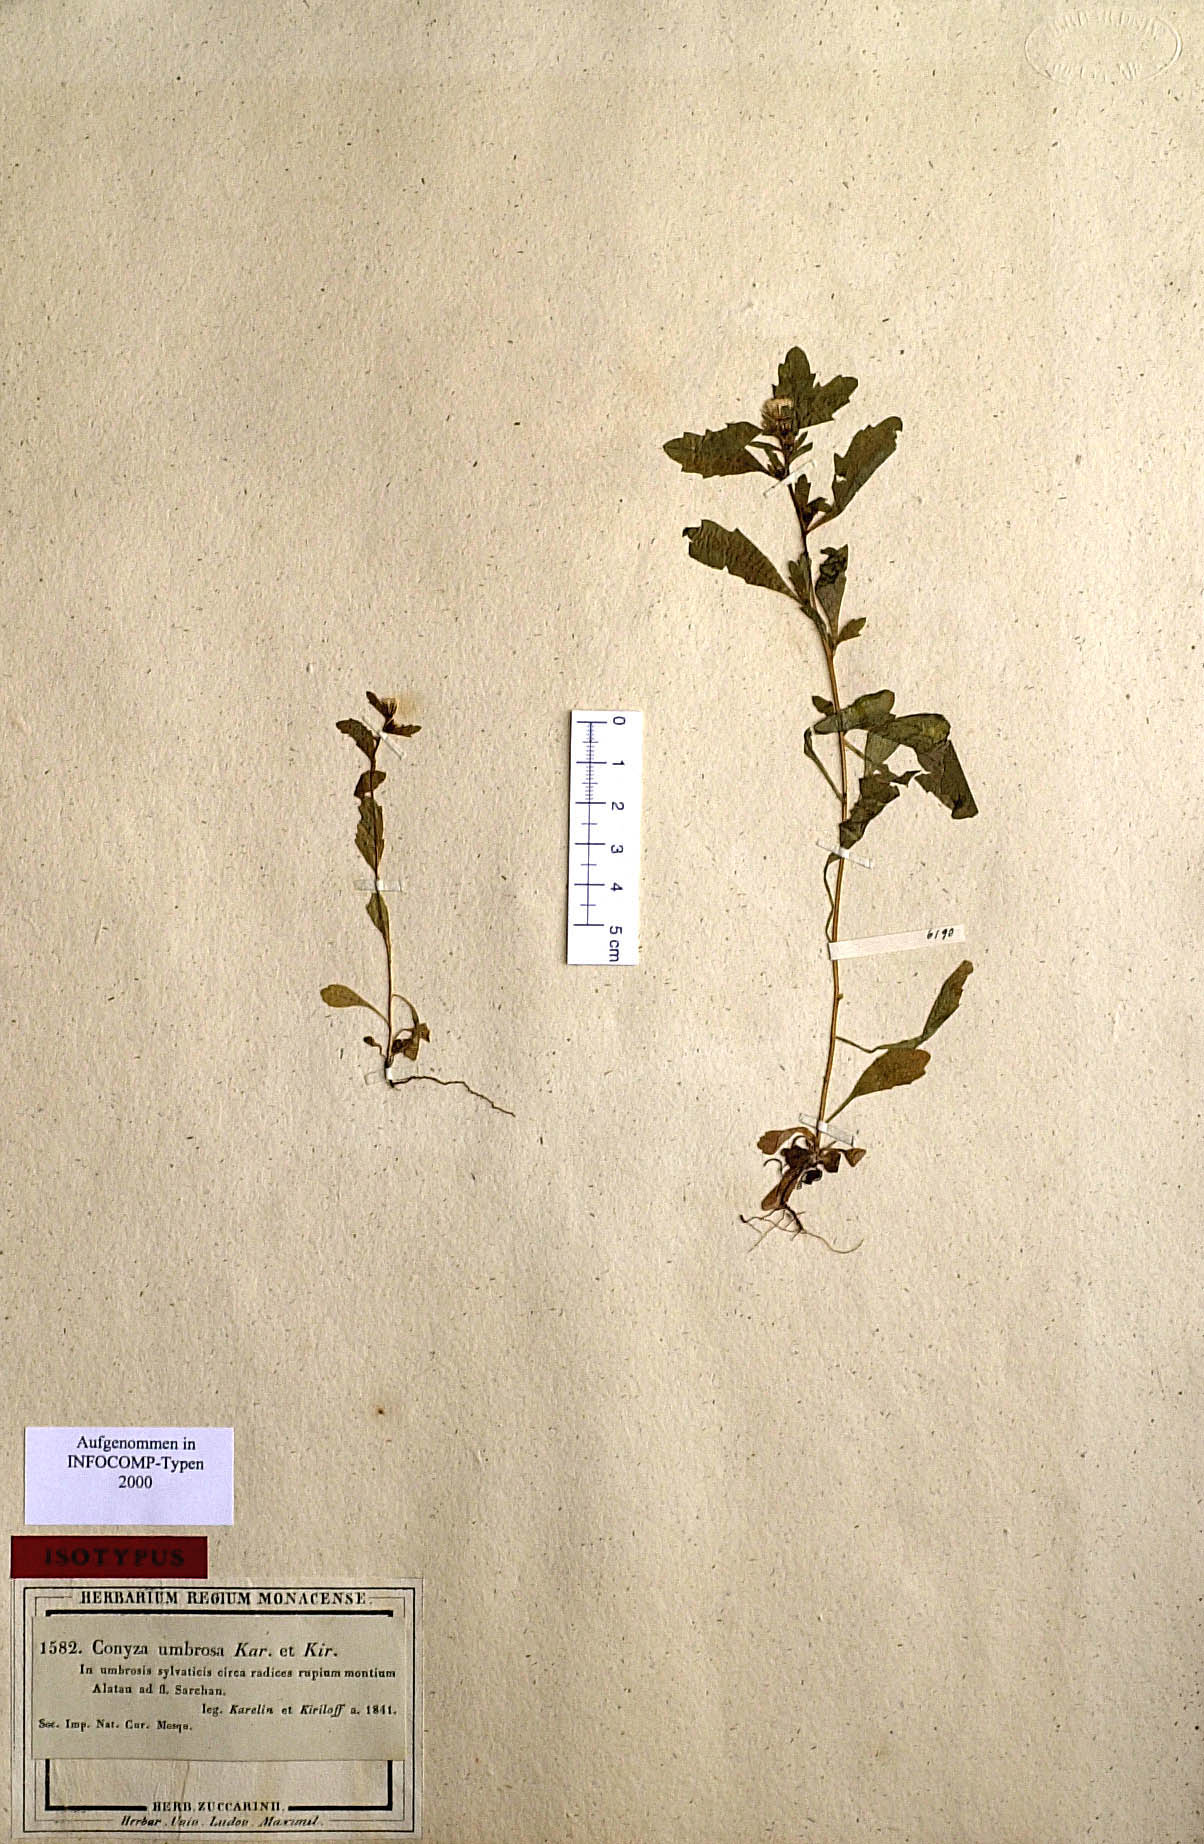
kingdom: Plantae
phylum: Tracheophyta
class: Magnoliopsida
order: Asterales
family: Asteraceae
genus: Neobrachyactis
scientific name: Neobrachyactis roylei
